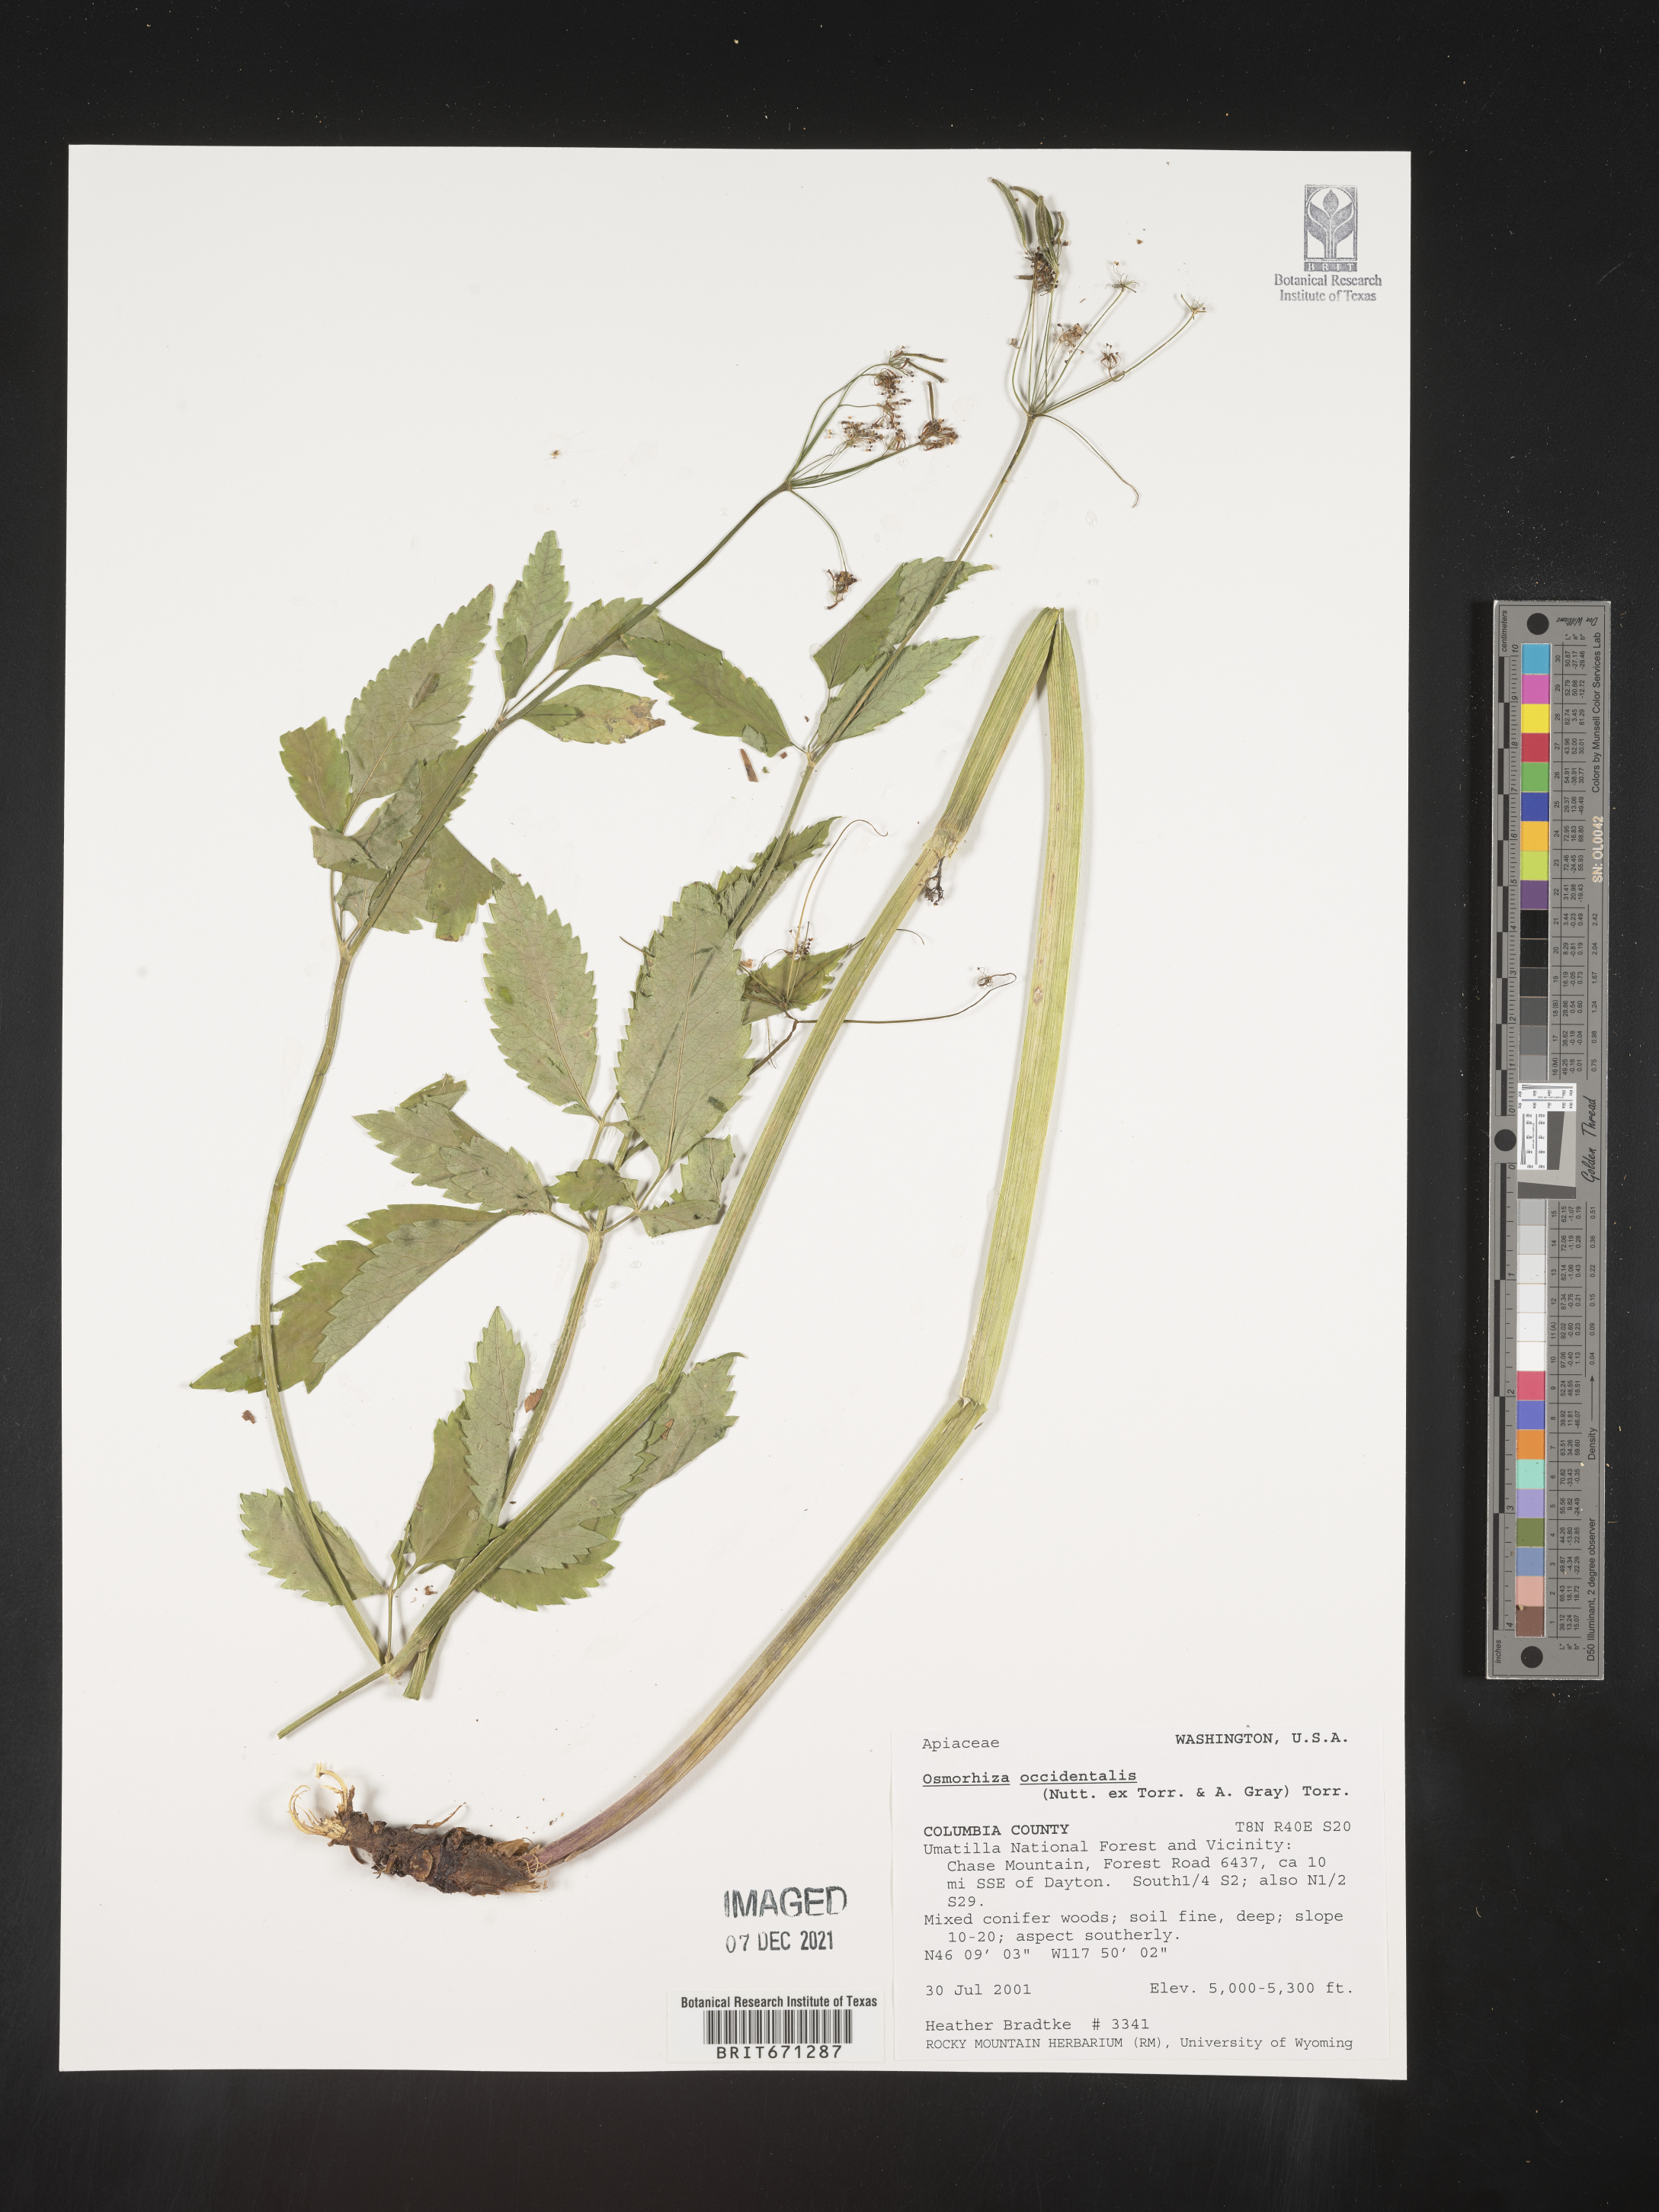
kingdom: Plantae
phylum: Tracheophyta
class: Magnoliopsida
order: Apiales
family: Apiaceae
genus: Osmorhiza
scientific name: Osmorhiza occidentalis
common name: Western sweet cicely
